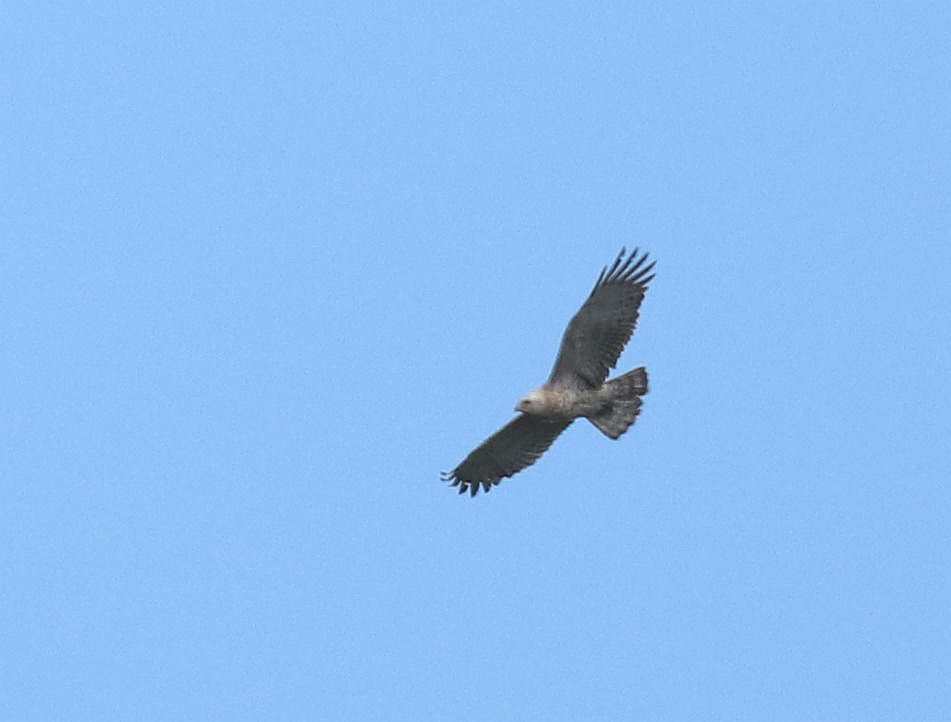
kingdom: Animalia
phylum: Chordata
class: Aves
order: Accipitriformes
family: Accipitridae
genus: Circaetus
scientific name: Circaetus gallicus
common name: Slangeørn
